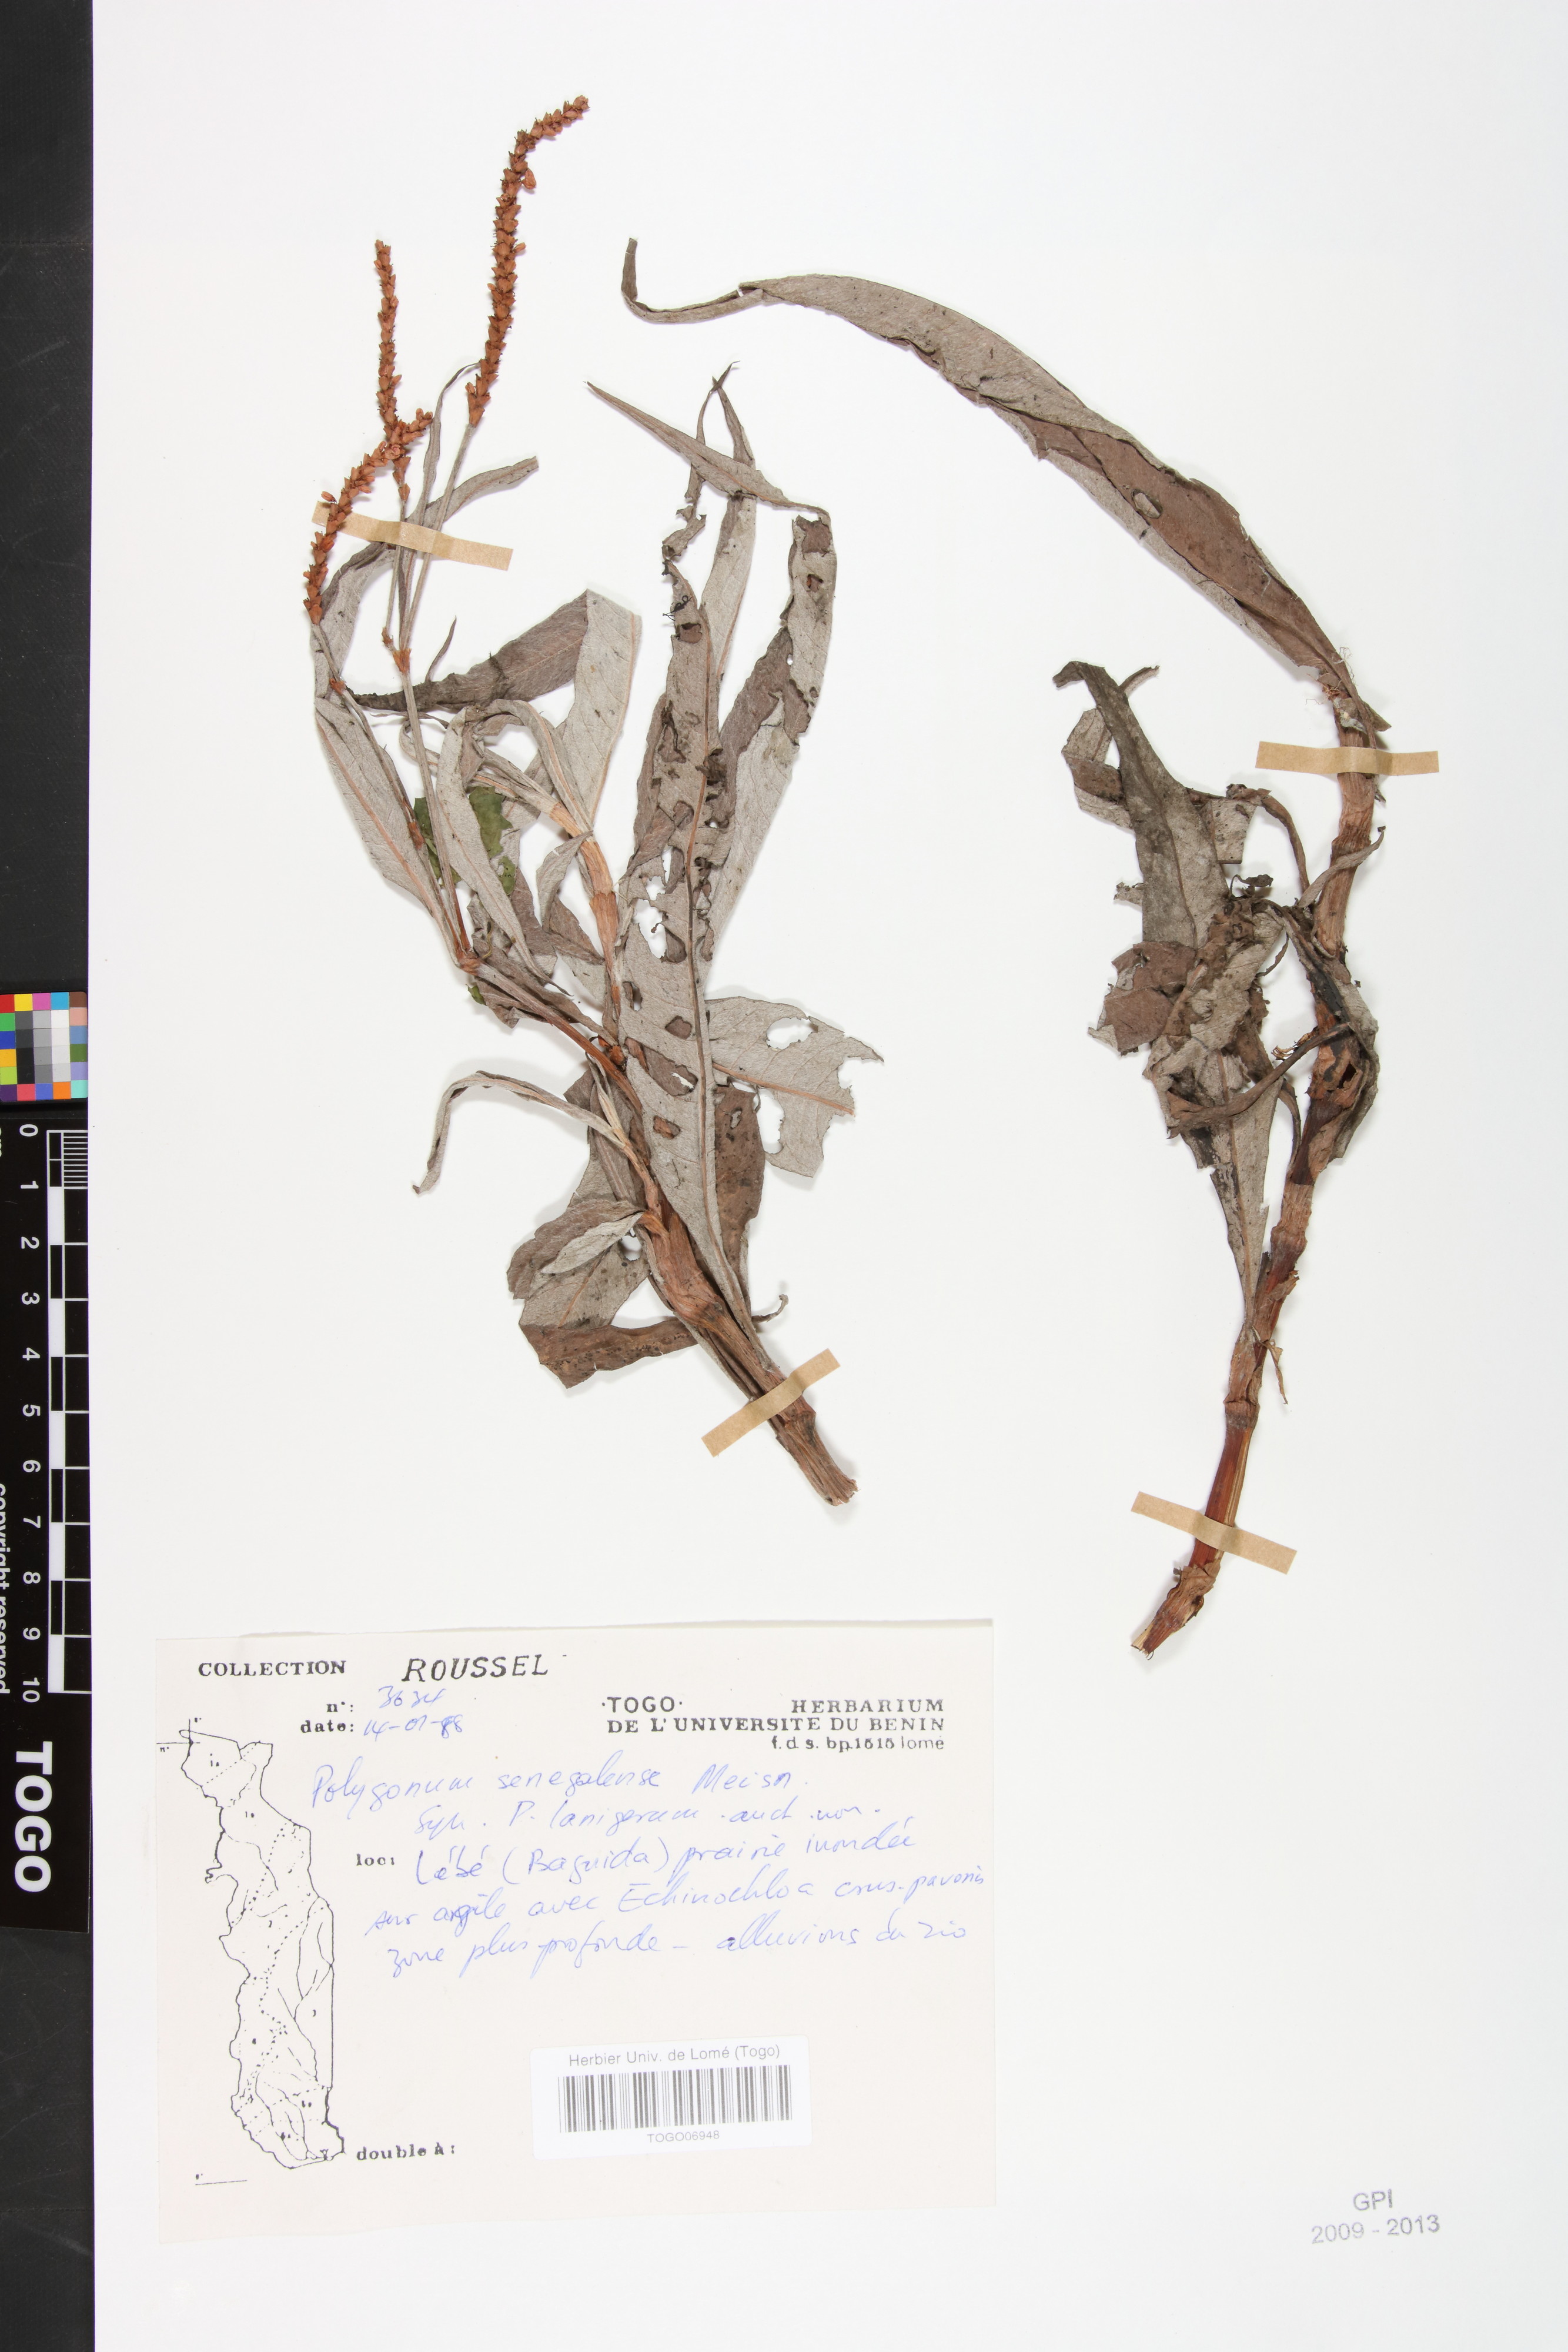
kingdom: Plantae
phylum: Tracheophyta
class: Magnoliopsida
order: Caryophyllales
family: Polygonaceae
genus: Persicaria
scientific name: Persicaria senegalensis
